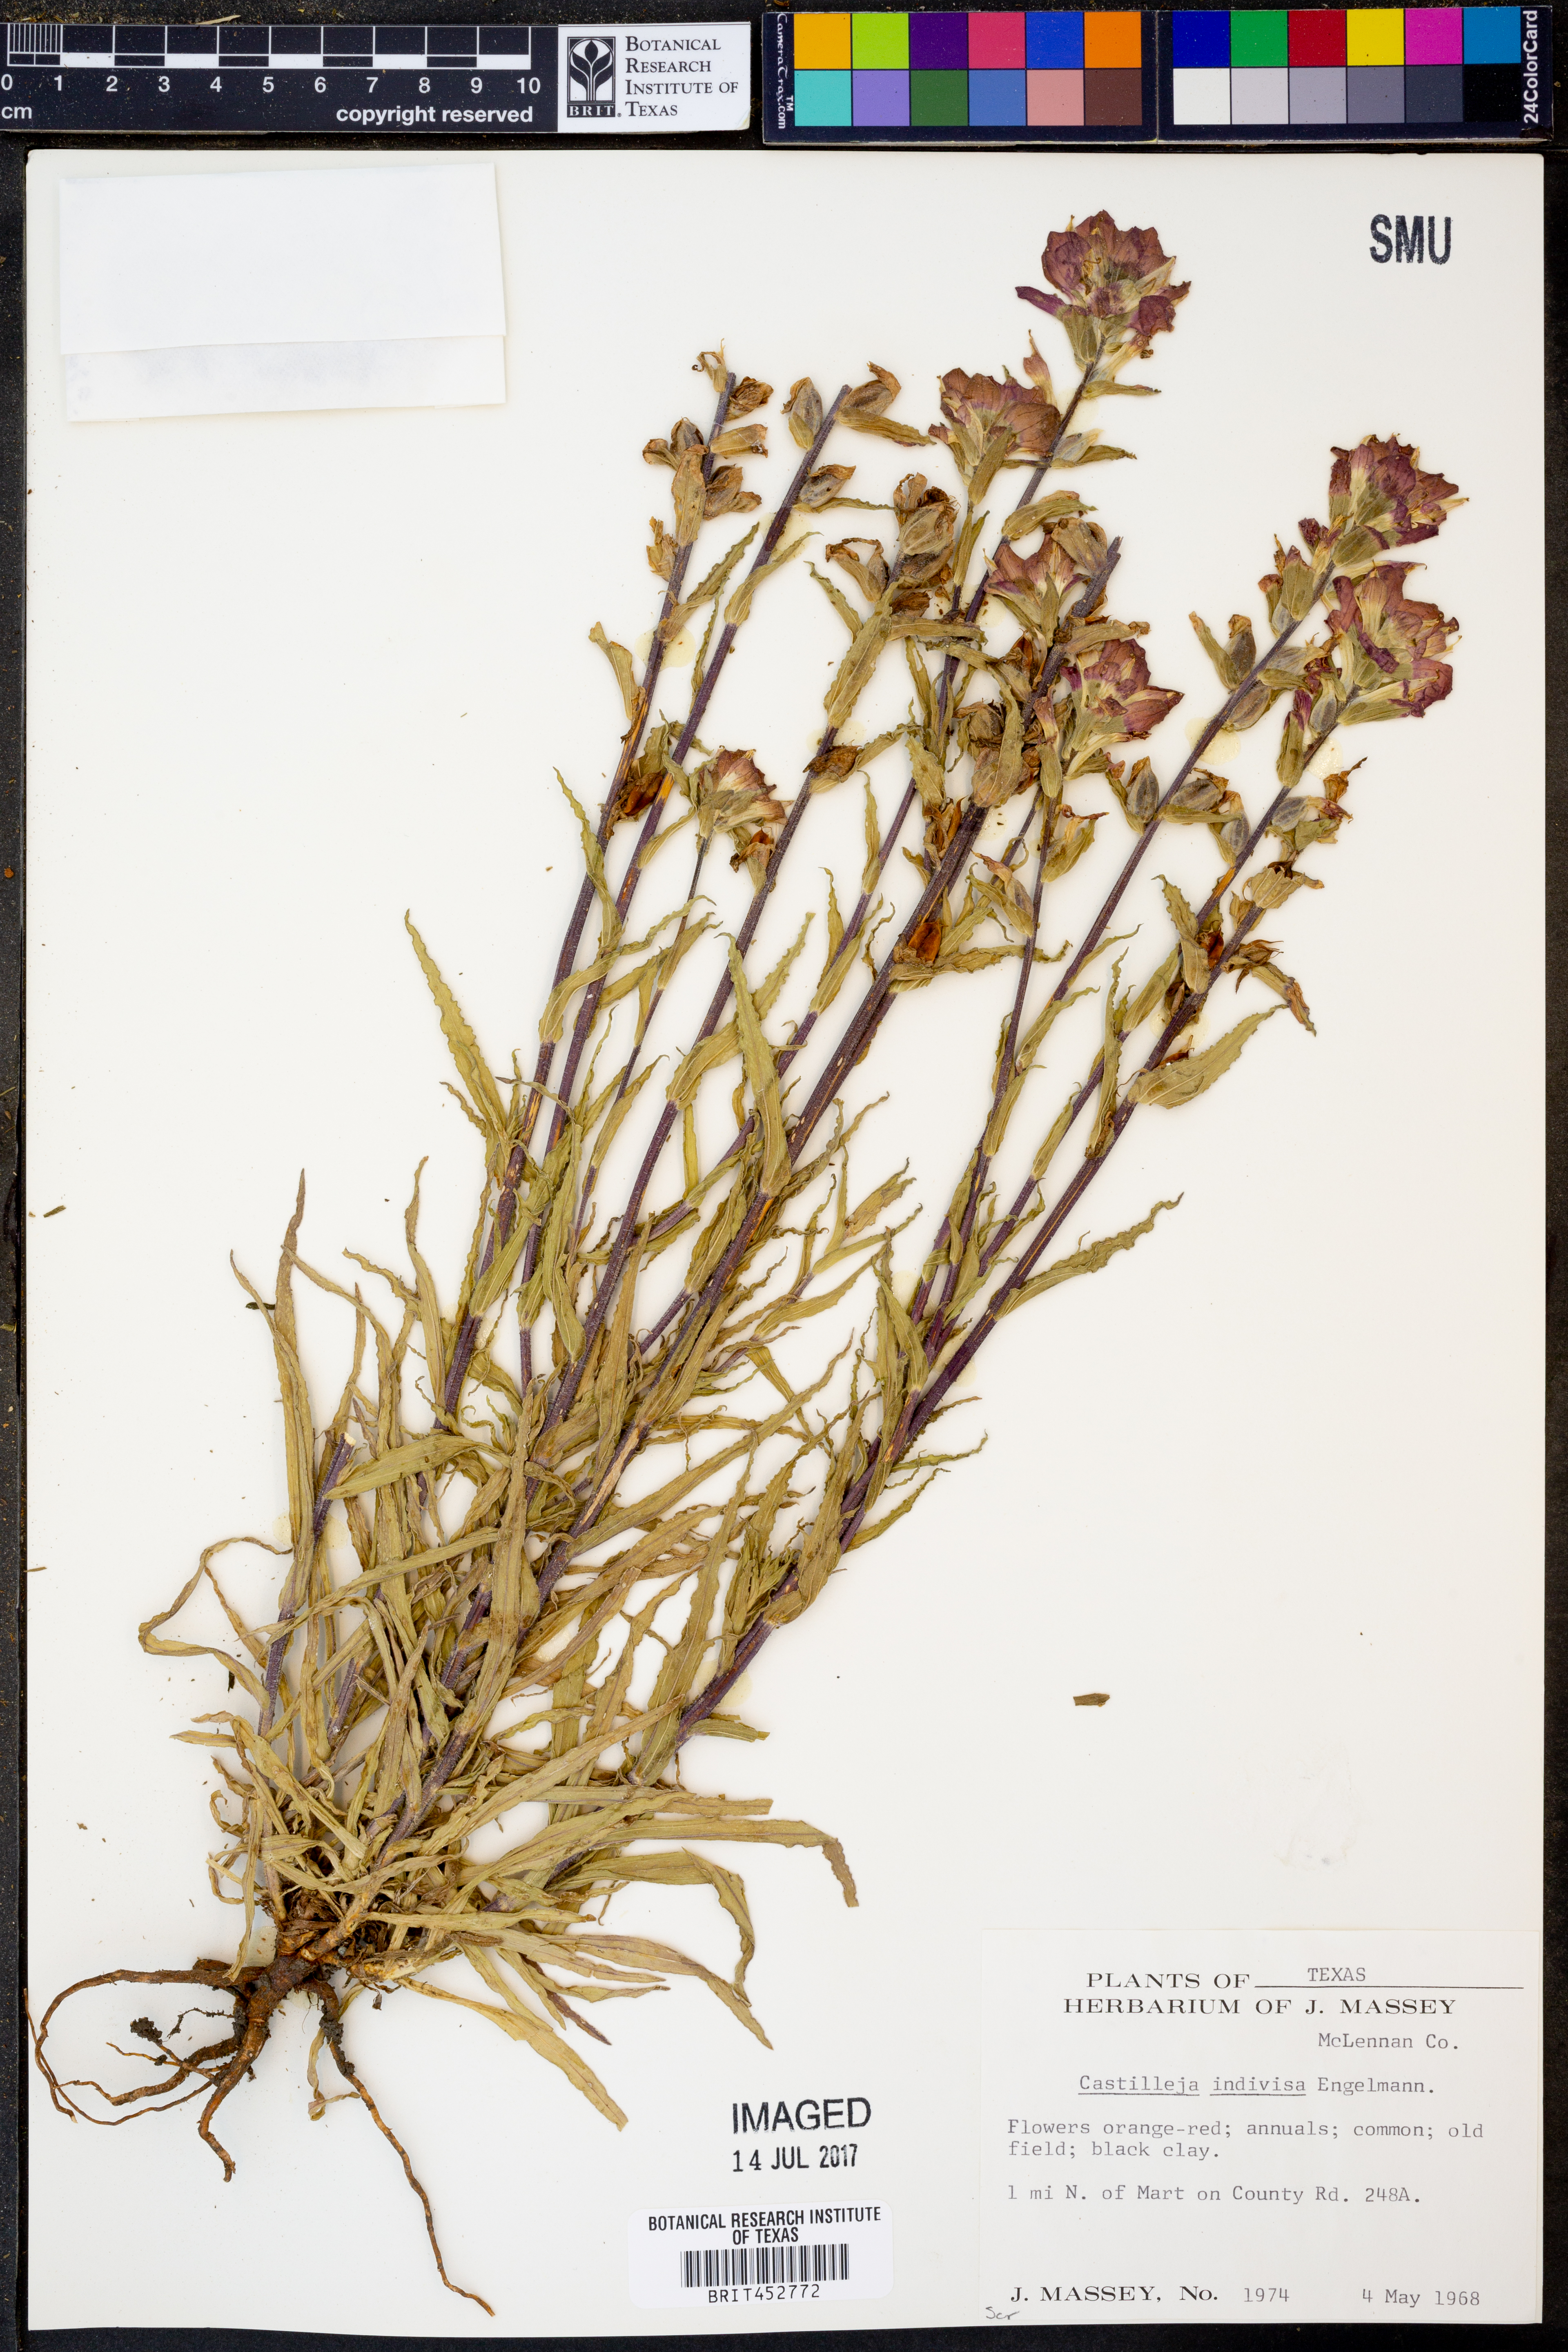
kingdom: Plantae
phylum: Tracheophyta
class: Magnoliopsida
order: Lamiales
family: Orobanchaceae
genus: Castilleja
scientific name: Castilleja indivisa
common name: Texas paintbrush
